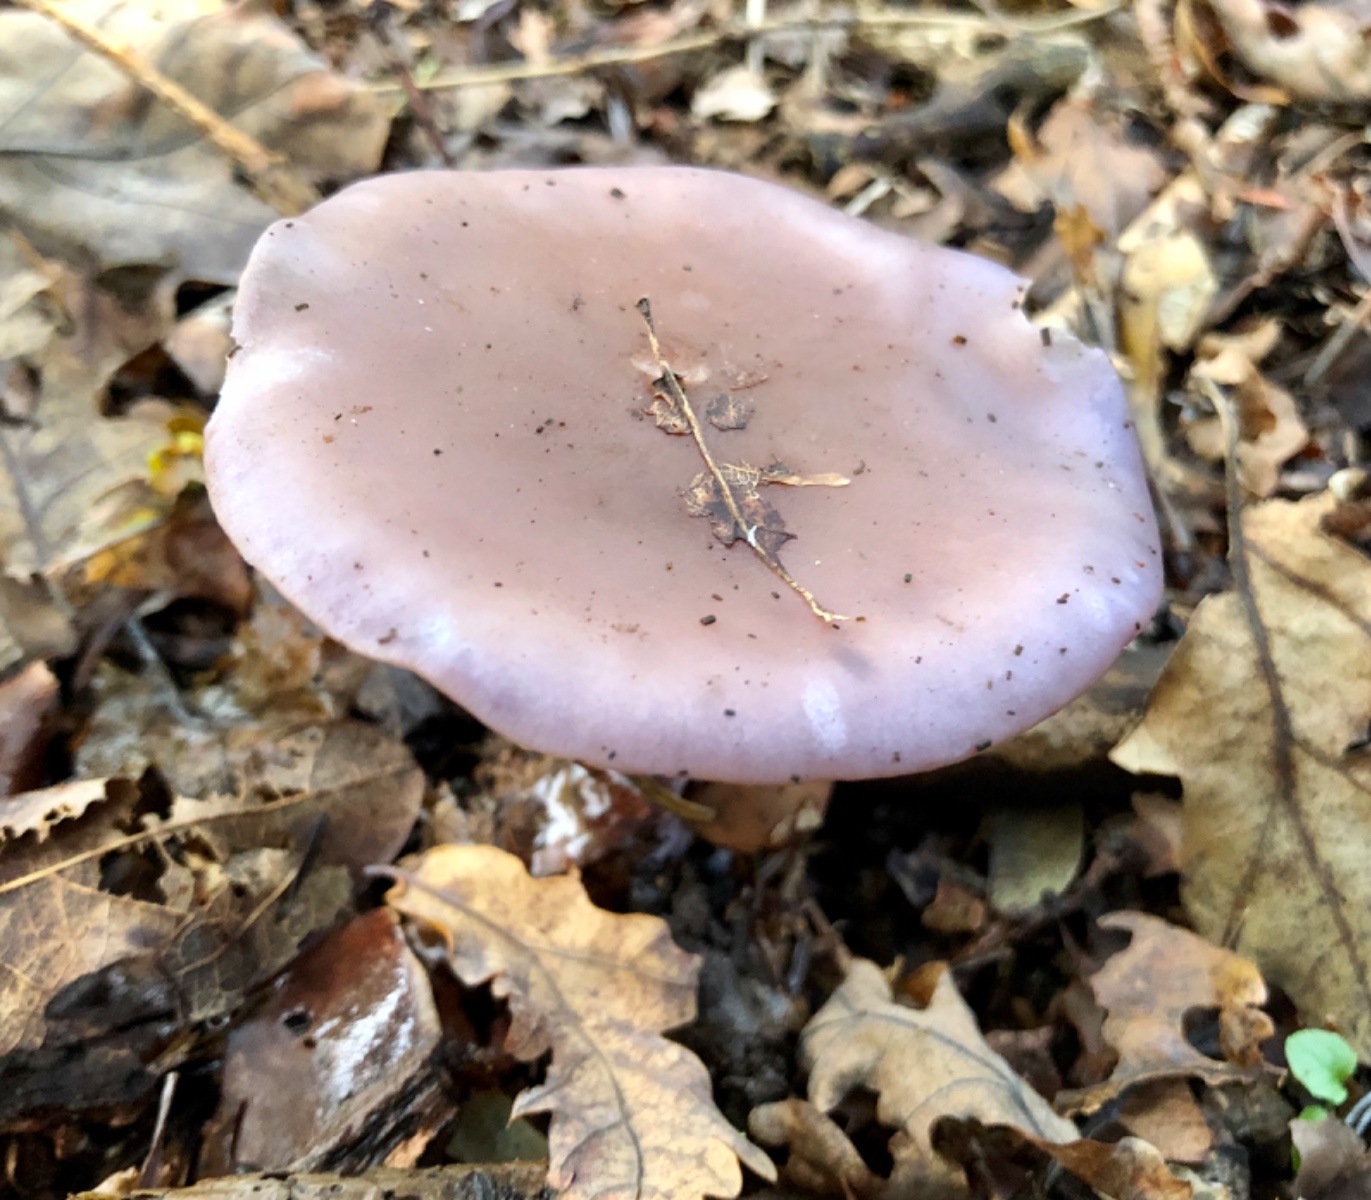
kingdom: Fungi
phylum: Basidiomycota
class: Agaricomycetes
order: Agaricales
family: Tricholomataceae
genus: Lepista
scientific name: Lepista nuda
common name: violet hekseringshat
